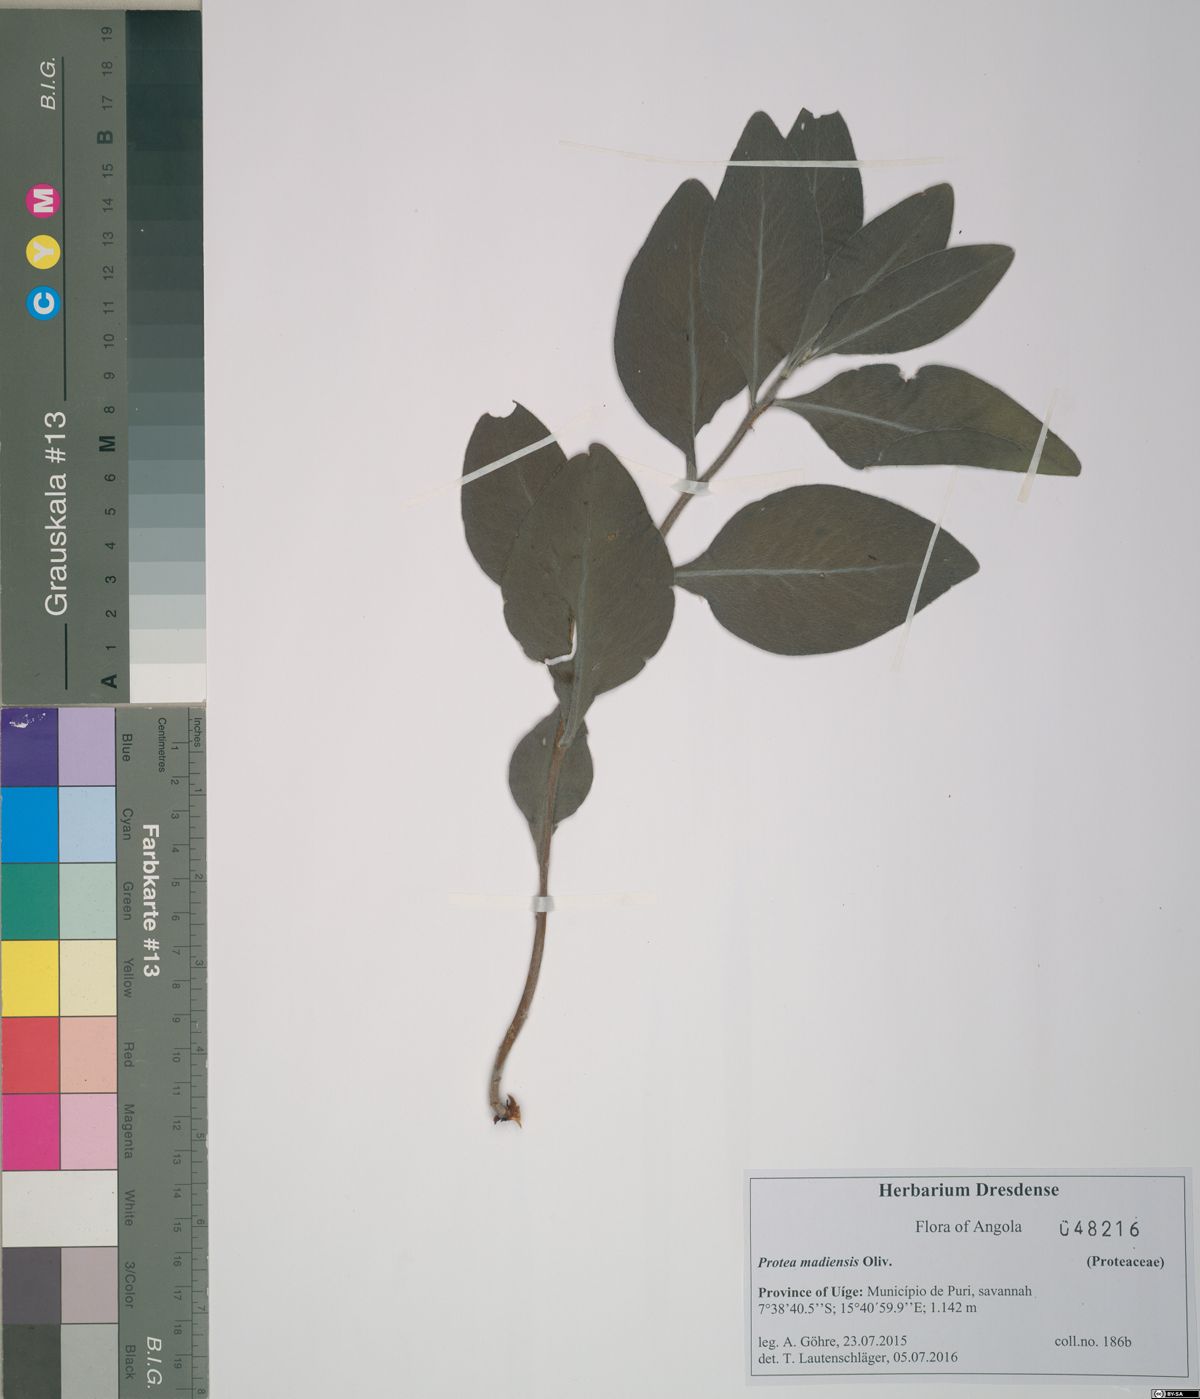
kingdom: Plantae
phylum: Tracheophyta
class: Magnoliopsida
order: Proteales
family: Proteaceae
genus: Protea
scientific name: Protea madiensis
